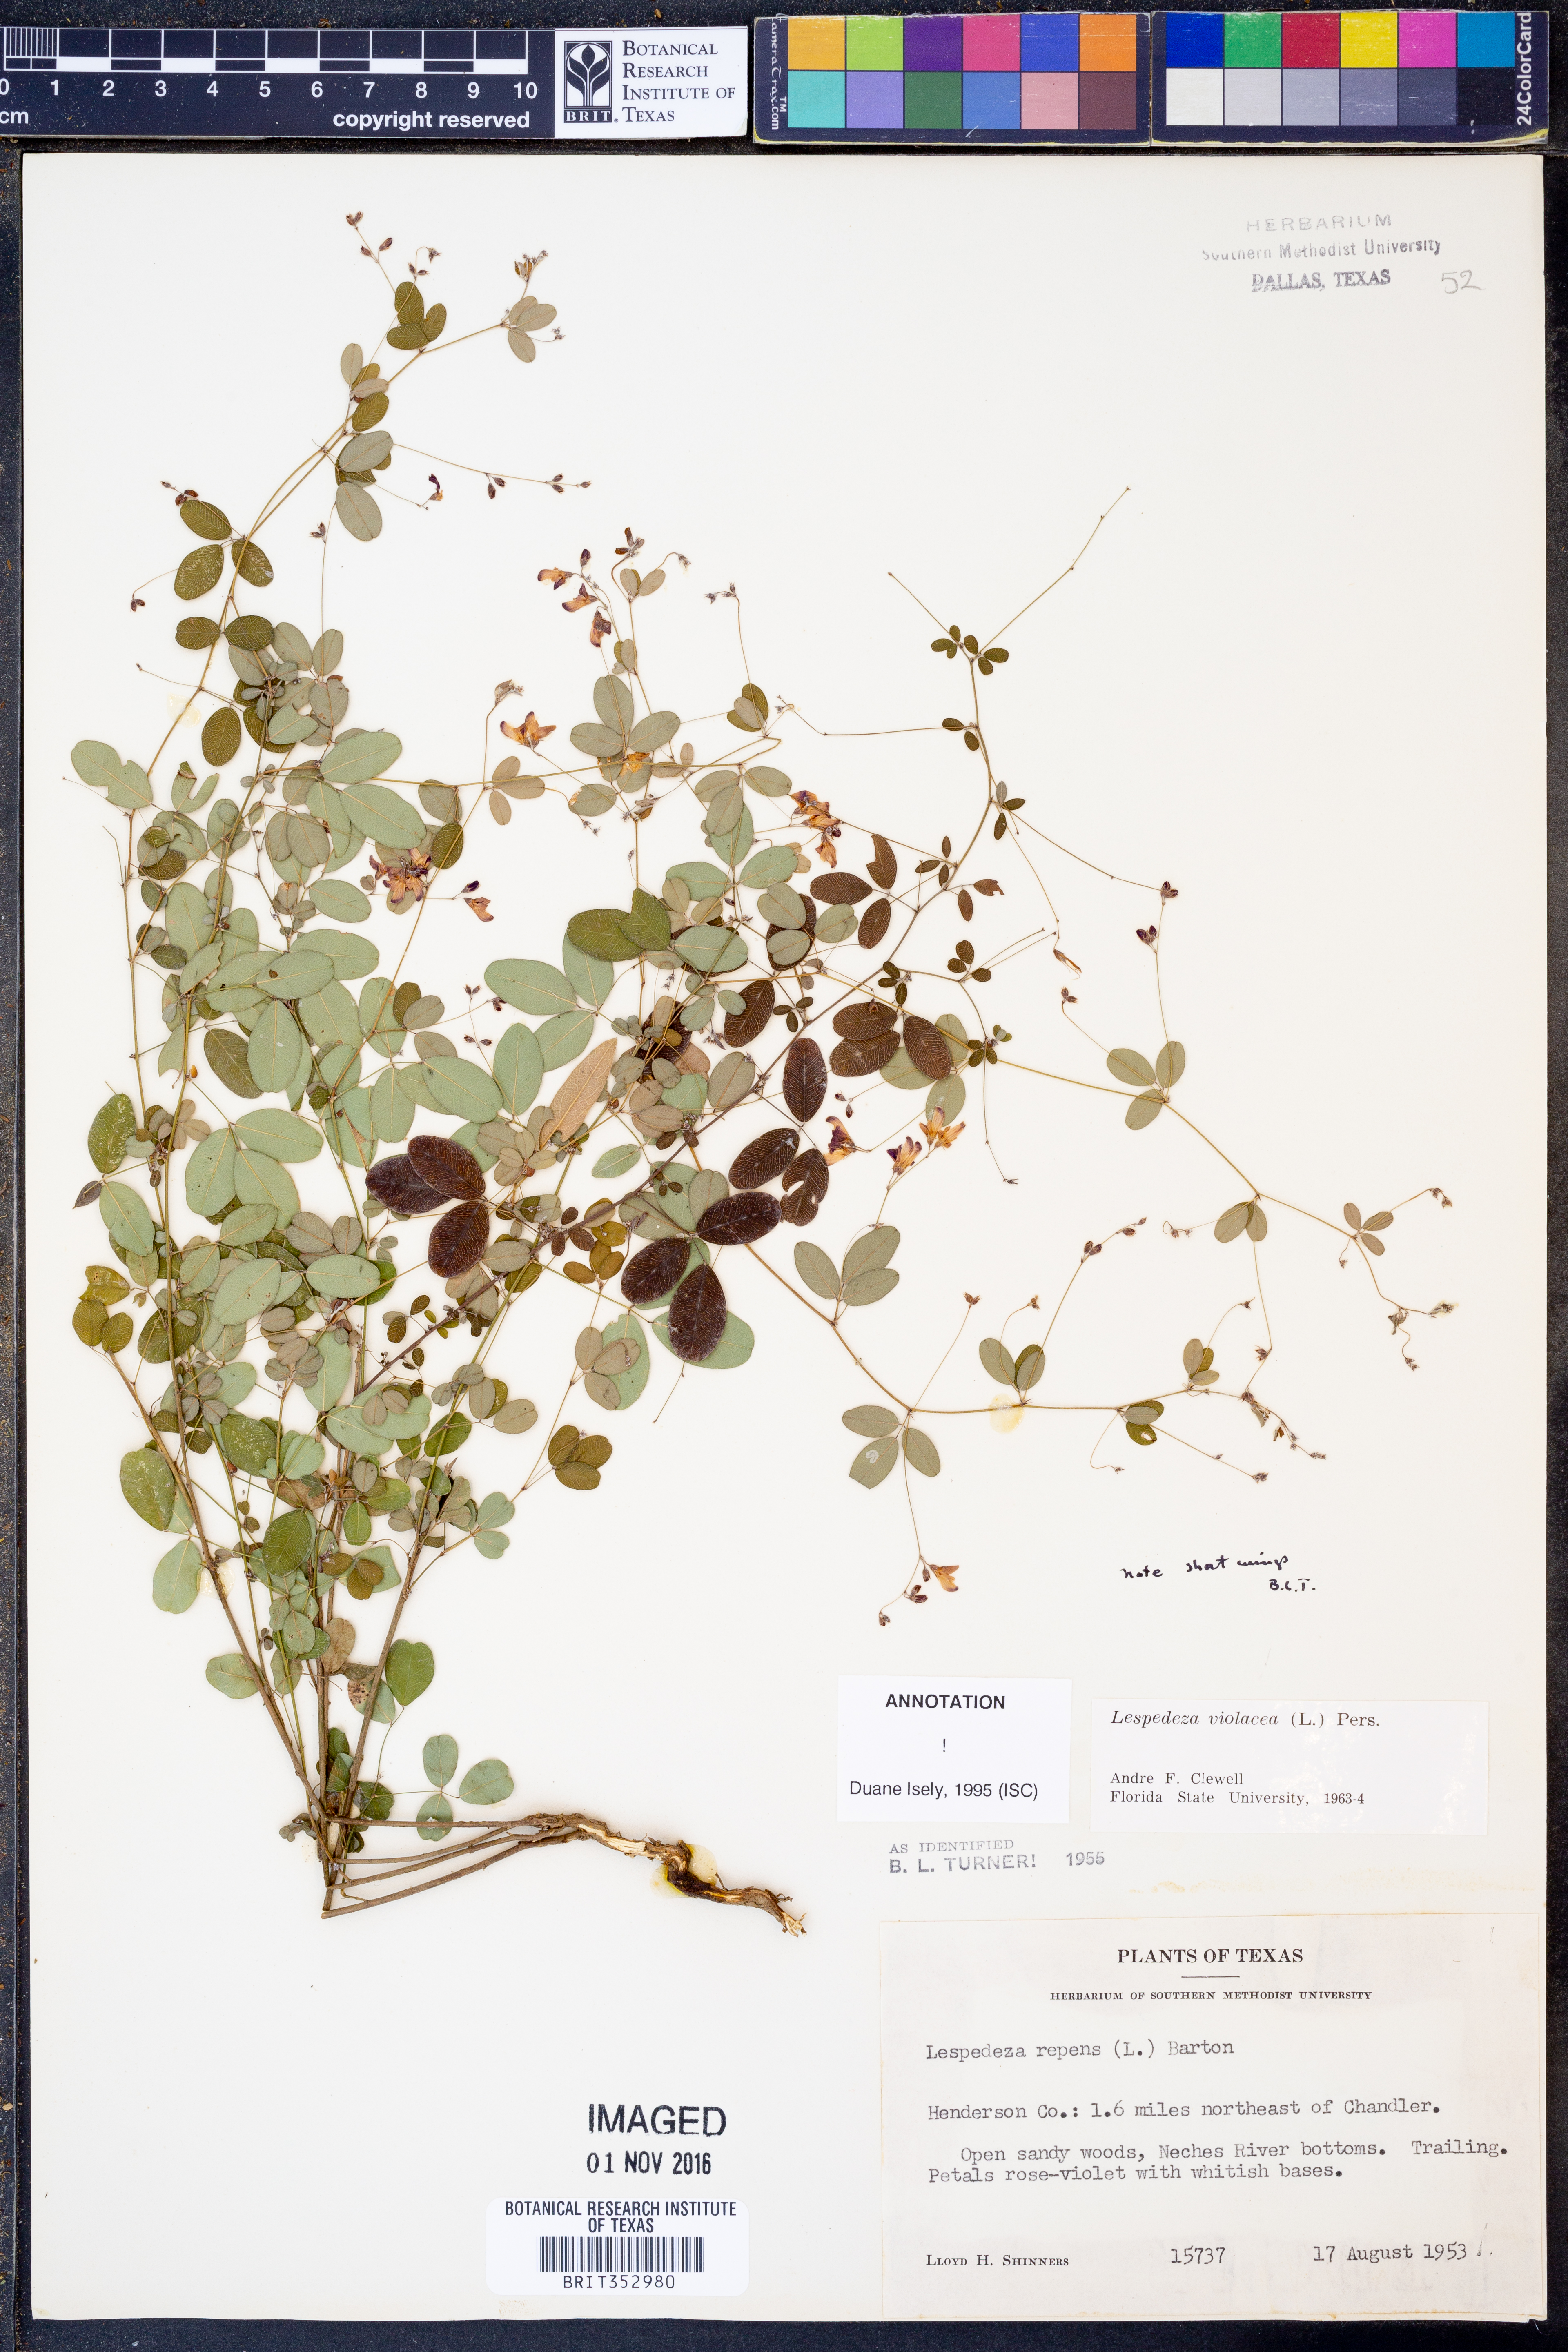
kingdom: Plantae
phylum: Tracheophyta
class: Magnoliopsida
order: Fabales
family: Fabaceae
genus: Lespedeza
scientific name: Lespedeza violacea
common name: Wand bush-clover
